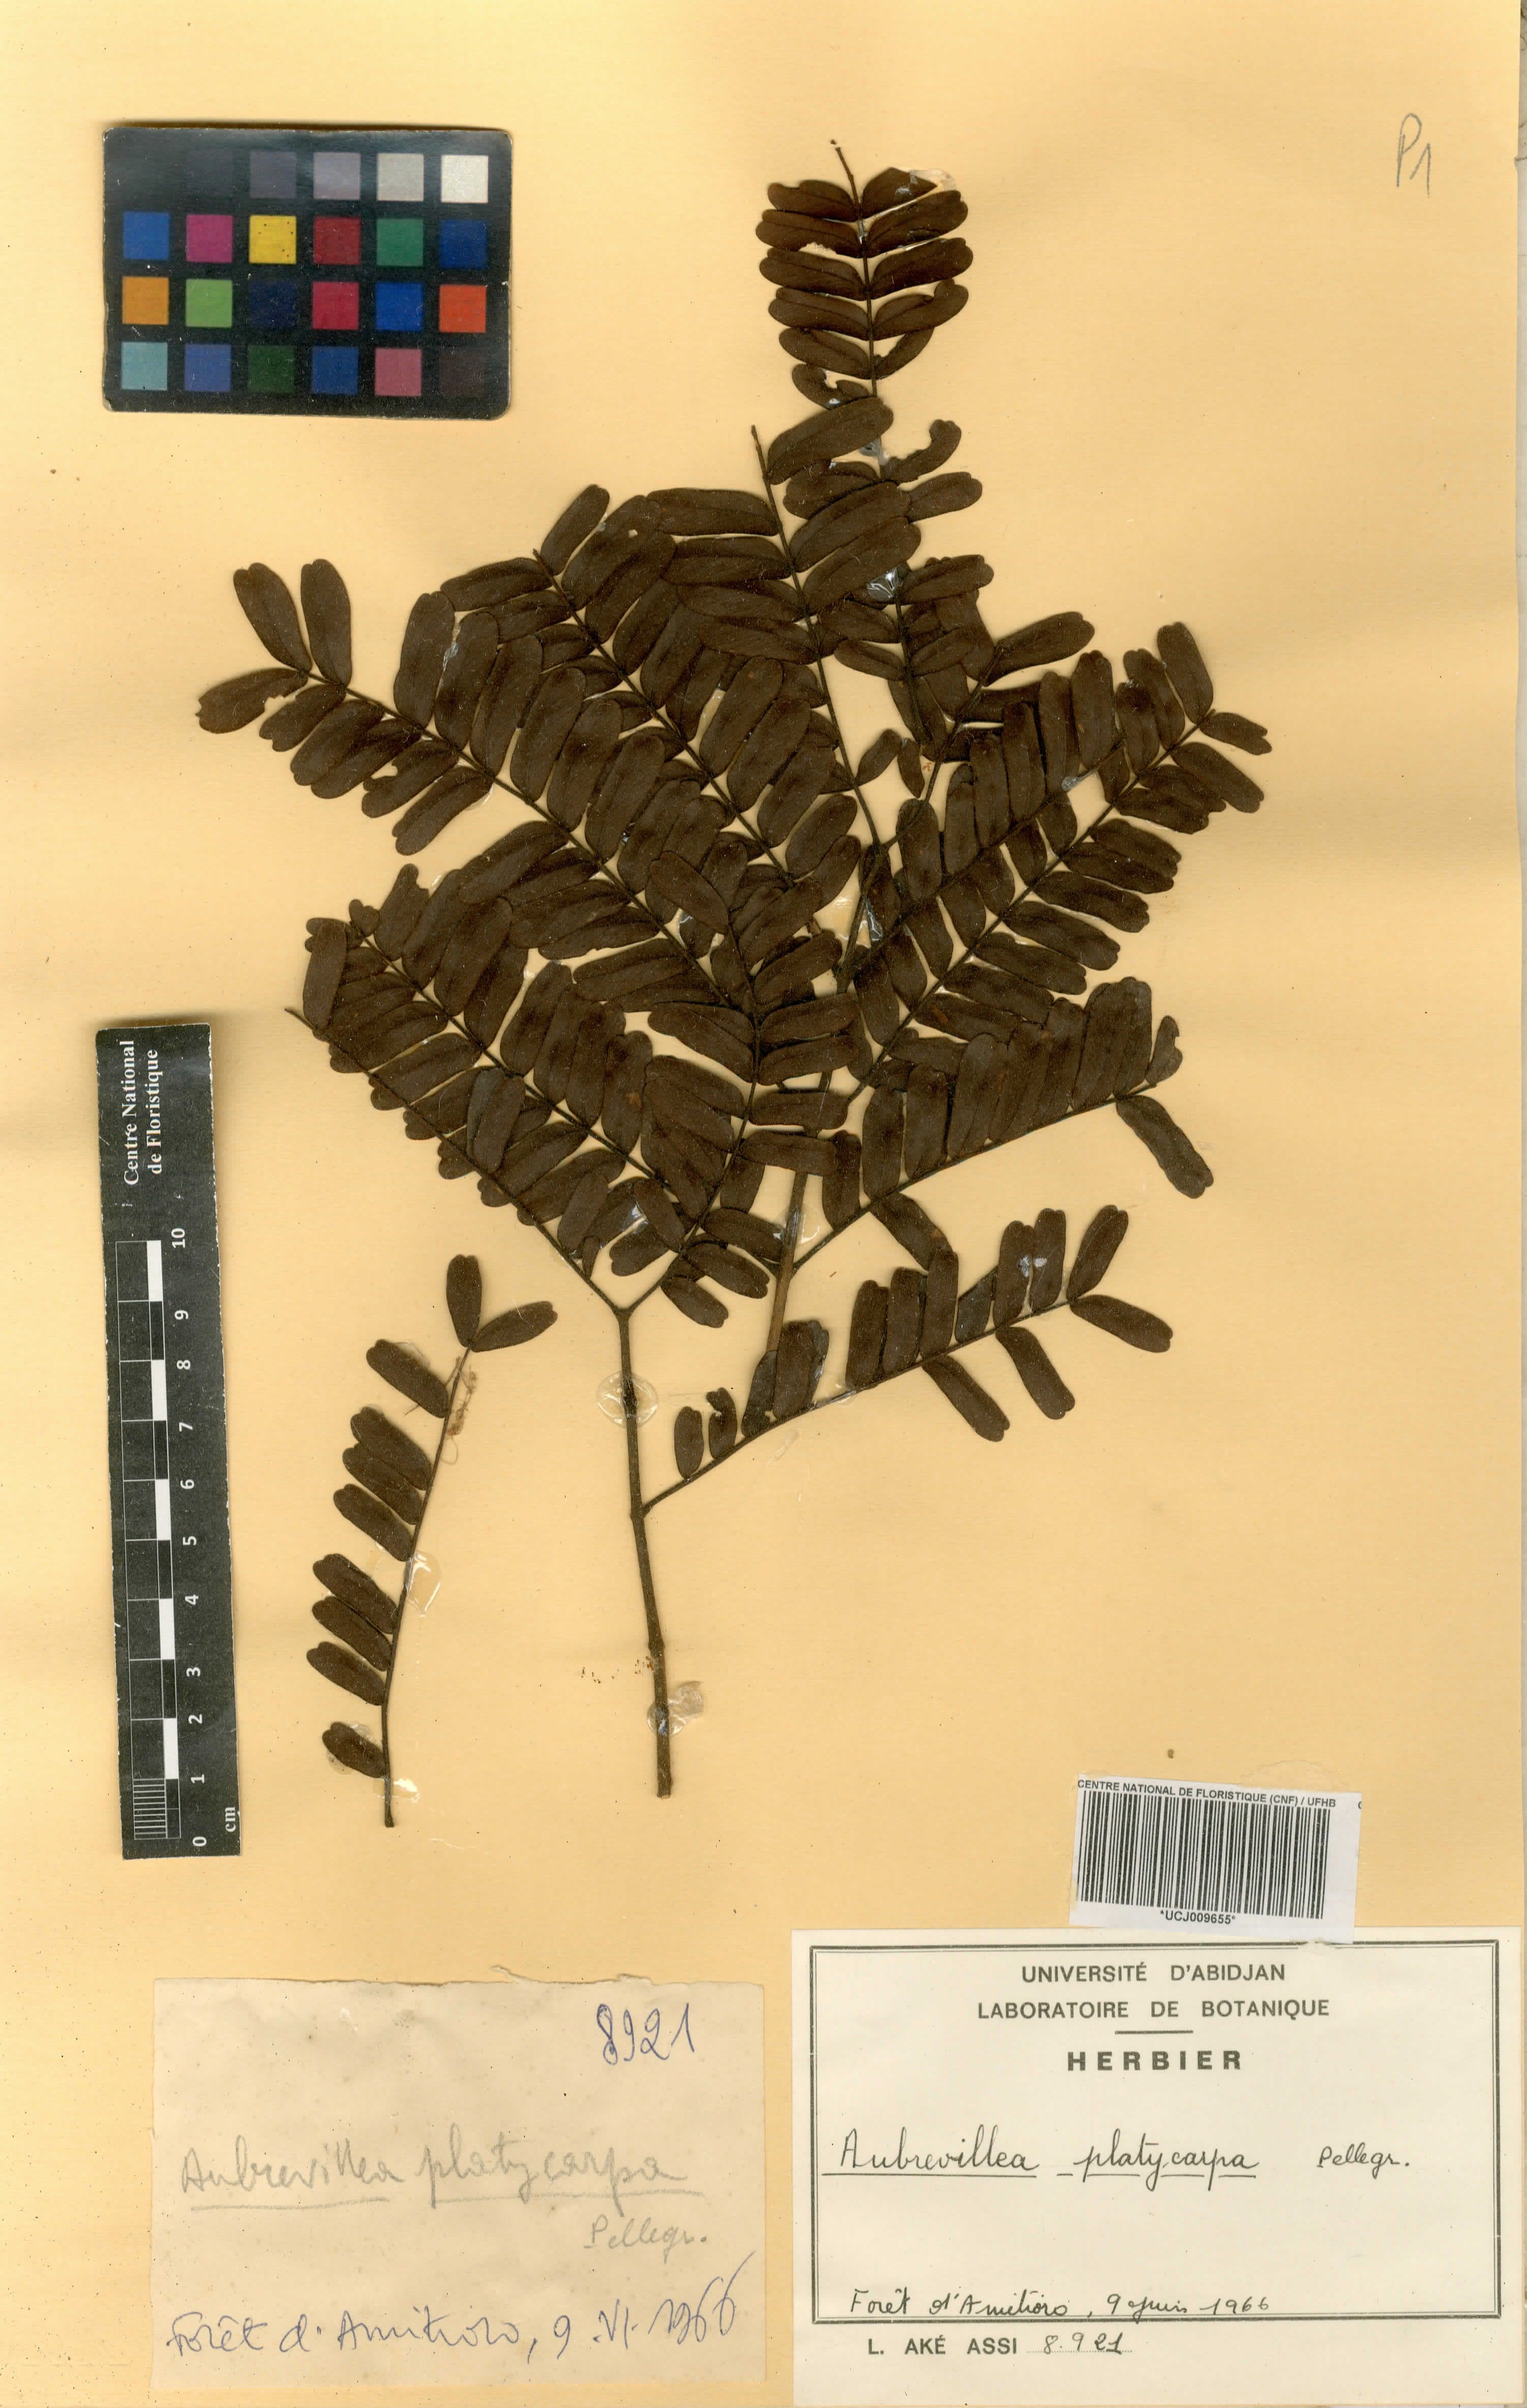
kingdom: Plantae
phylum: Tracheophyta
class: Magnoliopsida
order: Fabales
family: Fabaceae
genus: Aubrevillea
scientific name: Aubrevillea platicarpa
